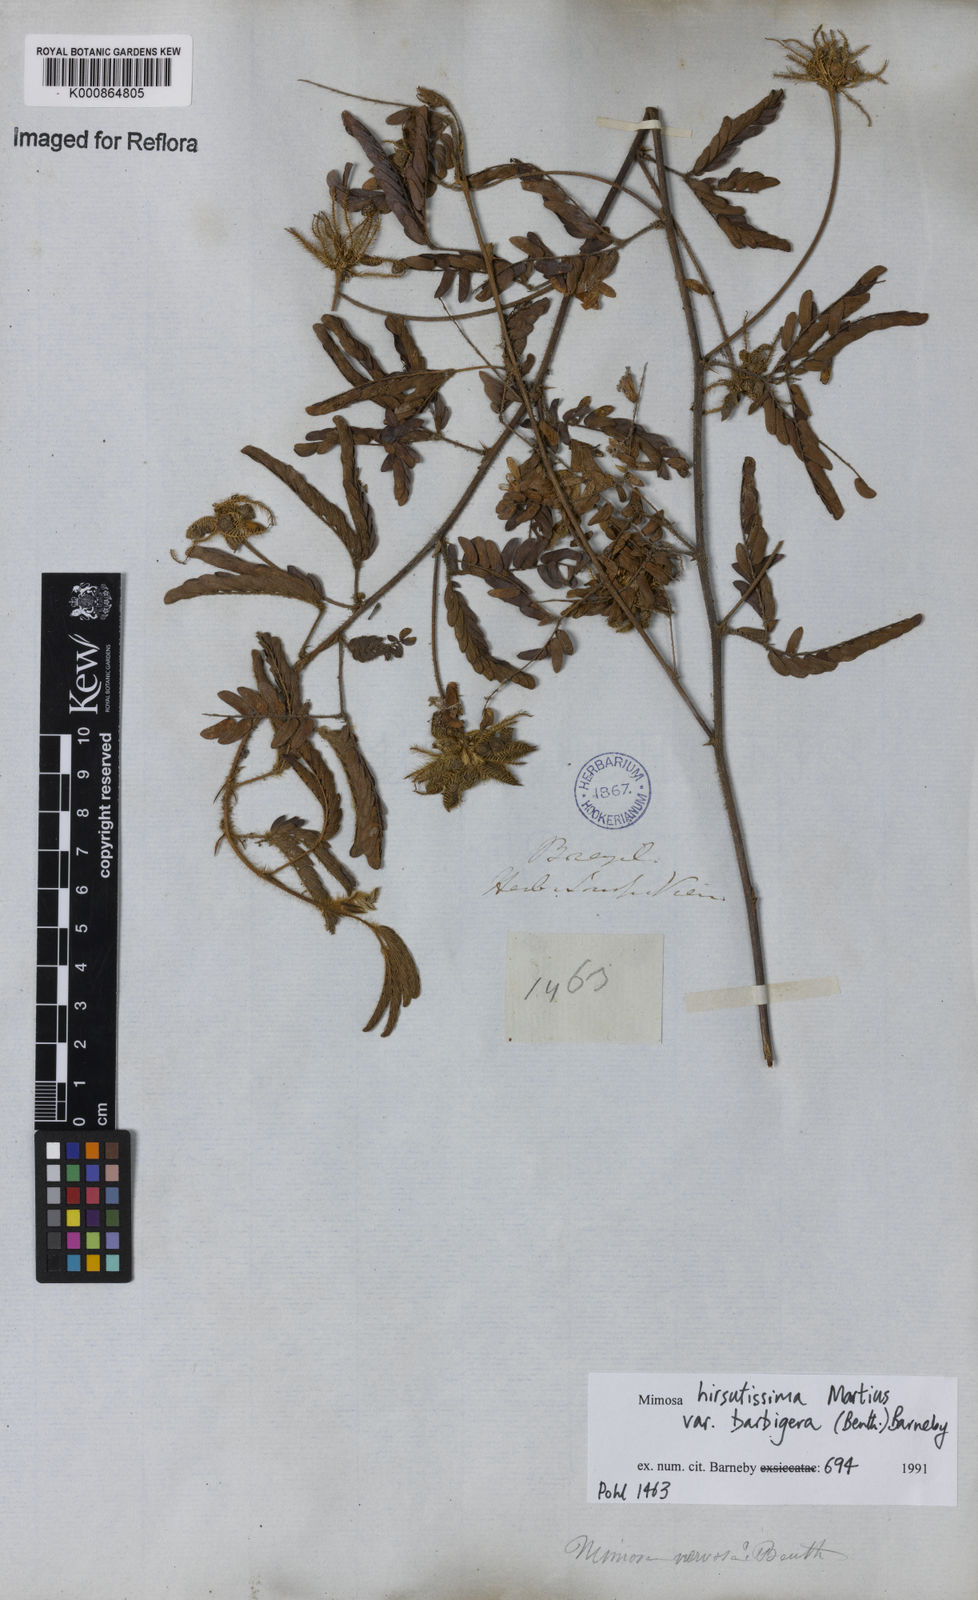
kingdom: Plantae
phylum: Tracheophyta
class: Magnoliopsida
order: Fabales
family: Fabaceae
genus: Mimosa
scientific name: Mimosa hirsutissima
